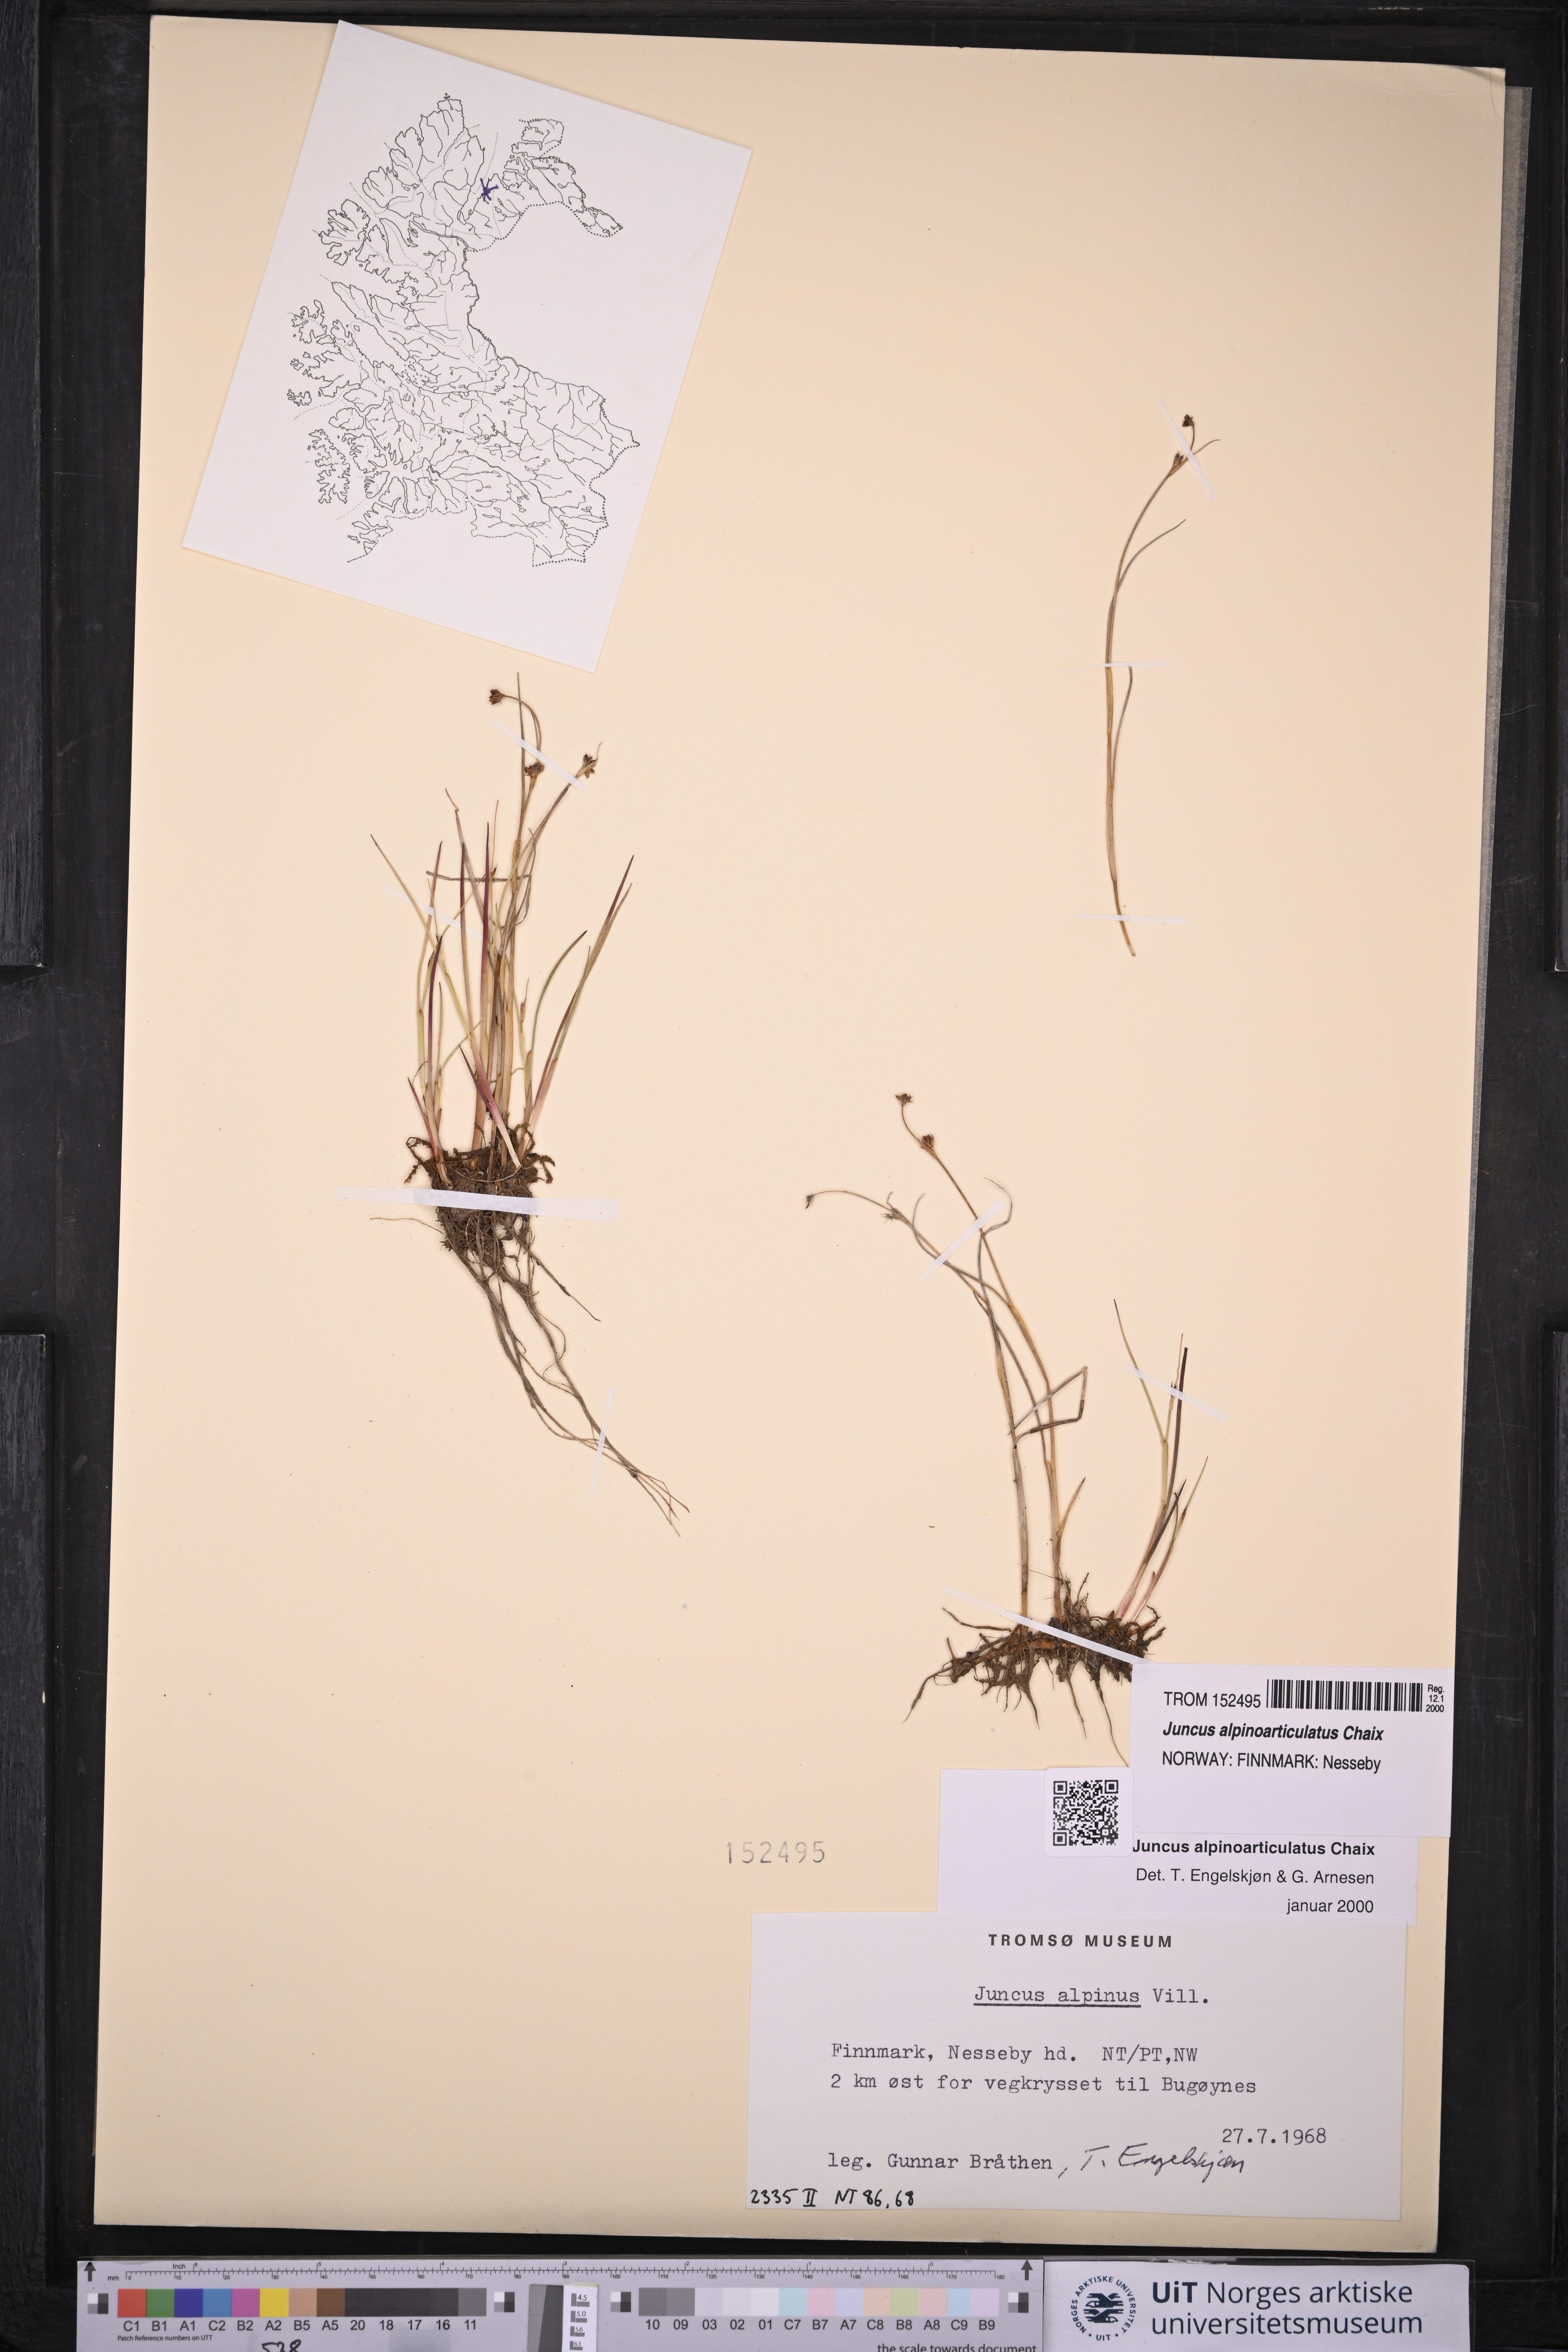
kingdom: Plantae
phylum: Tracheophyta
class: Liliopsida
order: Poales
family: Juncaceae
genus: Juncus
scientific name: Juncus alpinoarticulatus
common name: Alpine rush
